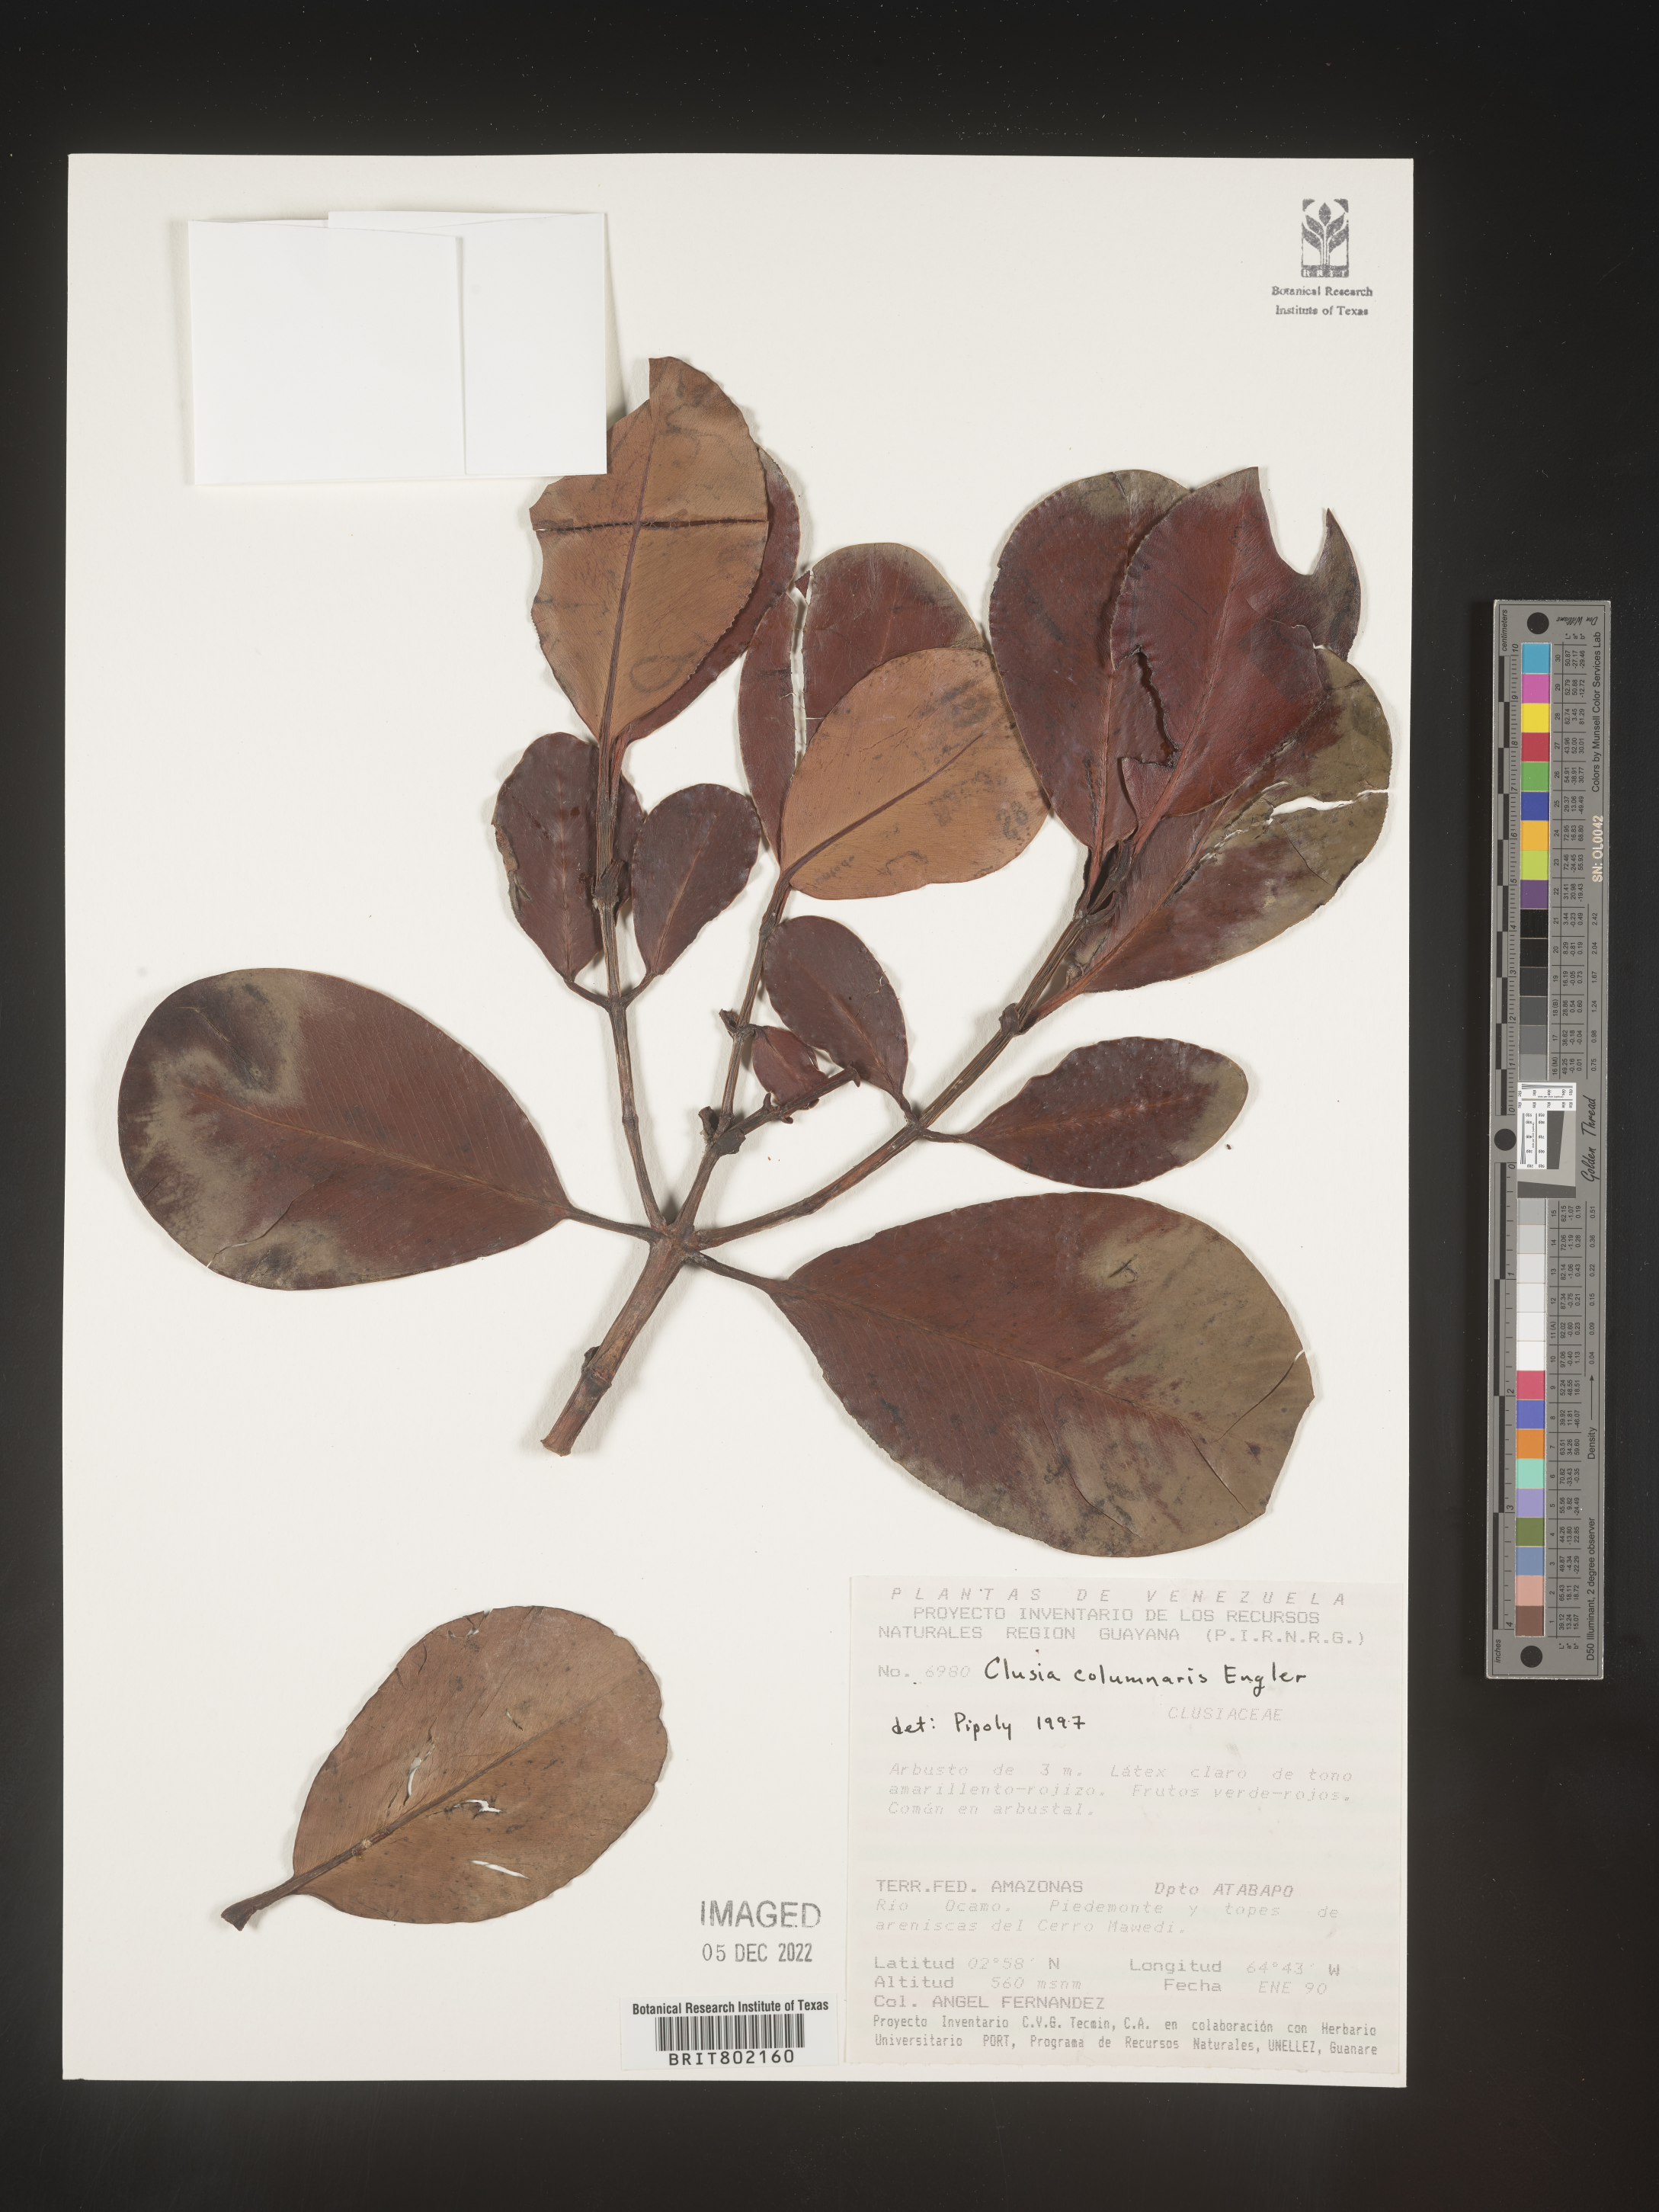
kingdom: Plantae
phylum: Tracheophyta
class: Magnoliopsida
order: Malpighiales
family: Clusiaceae
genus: Clusia
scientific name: Clusia columnaris
